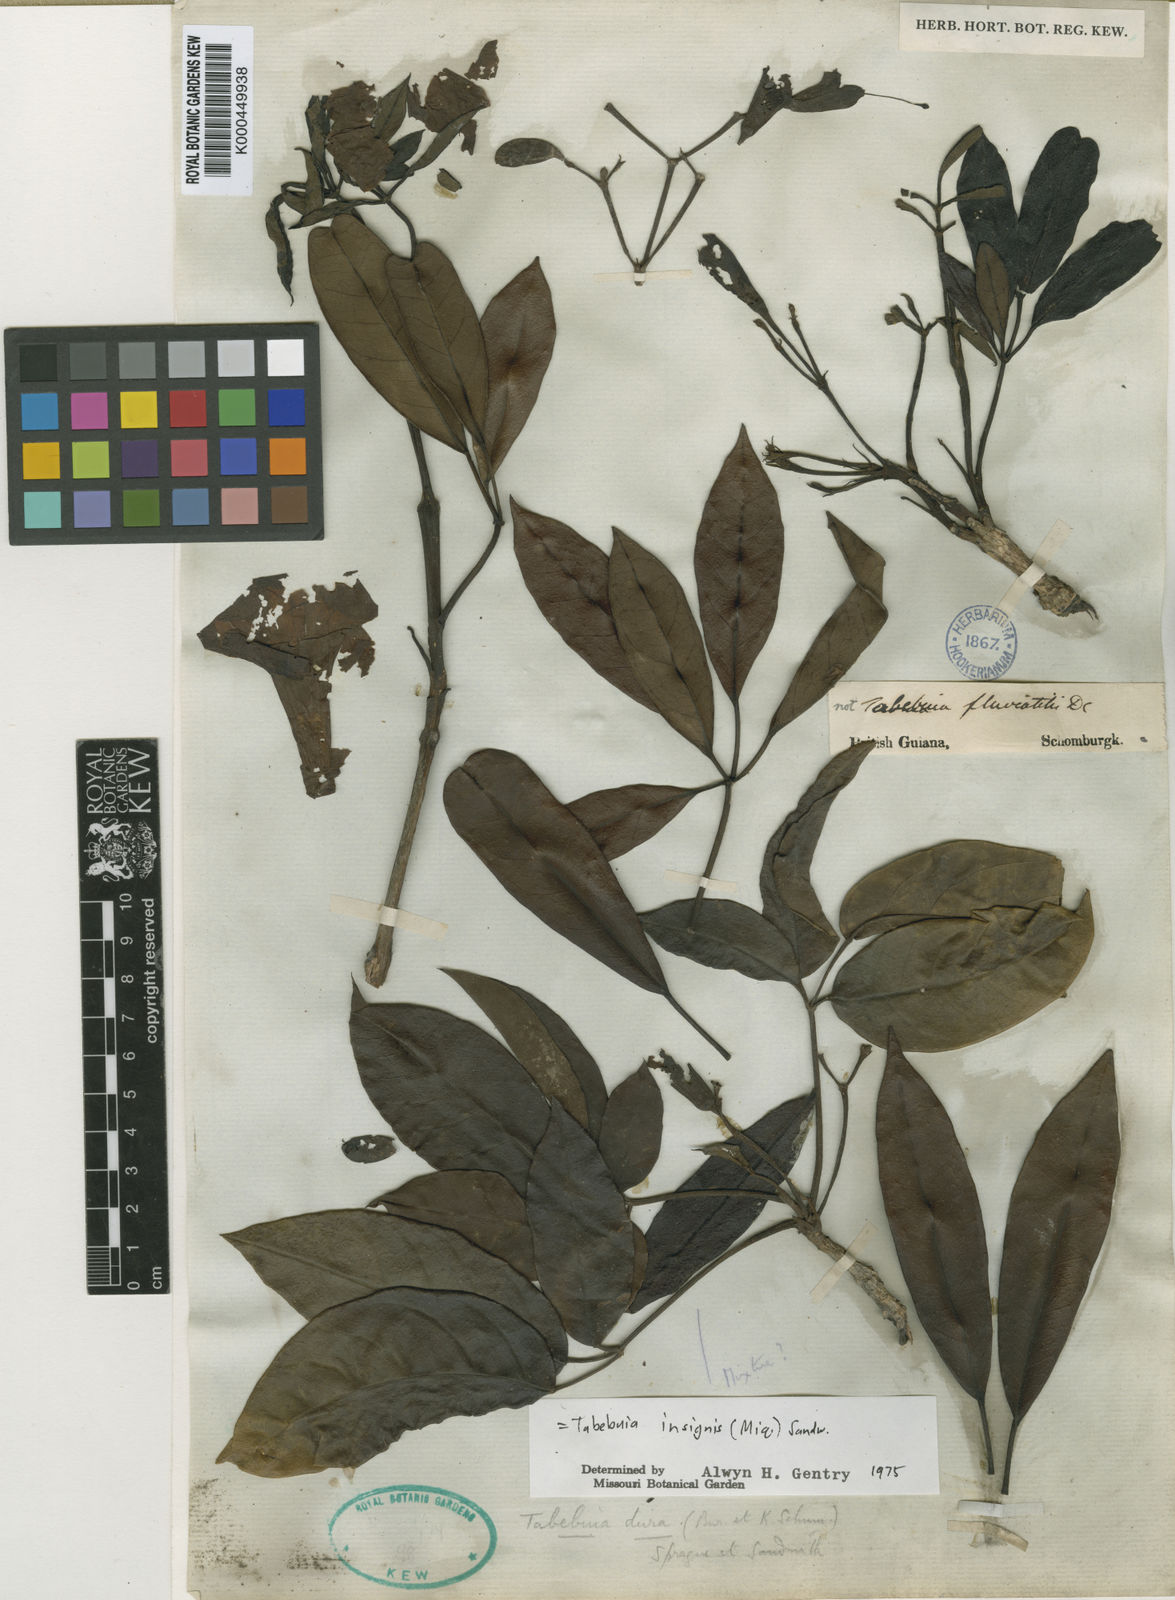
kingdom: Plantae
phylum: Tracheophyta
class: Magnoliopsida
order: Lamiales
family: Bignoniaceae
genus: Tabebuia
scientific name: Tabebuia insignis
